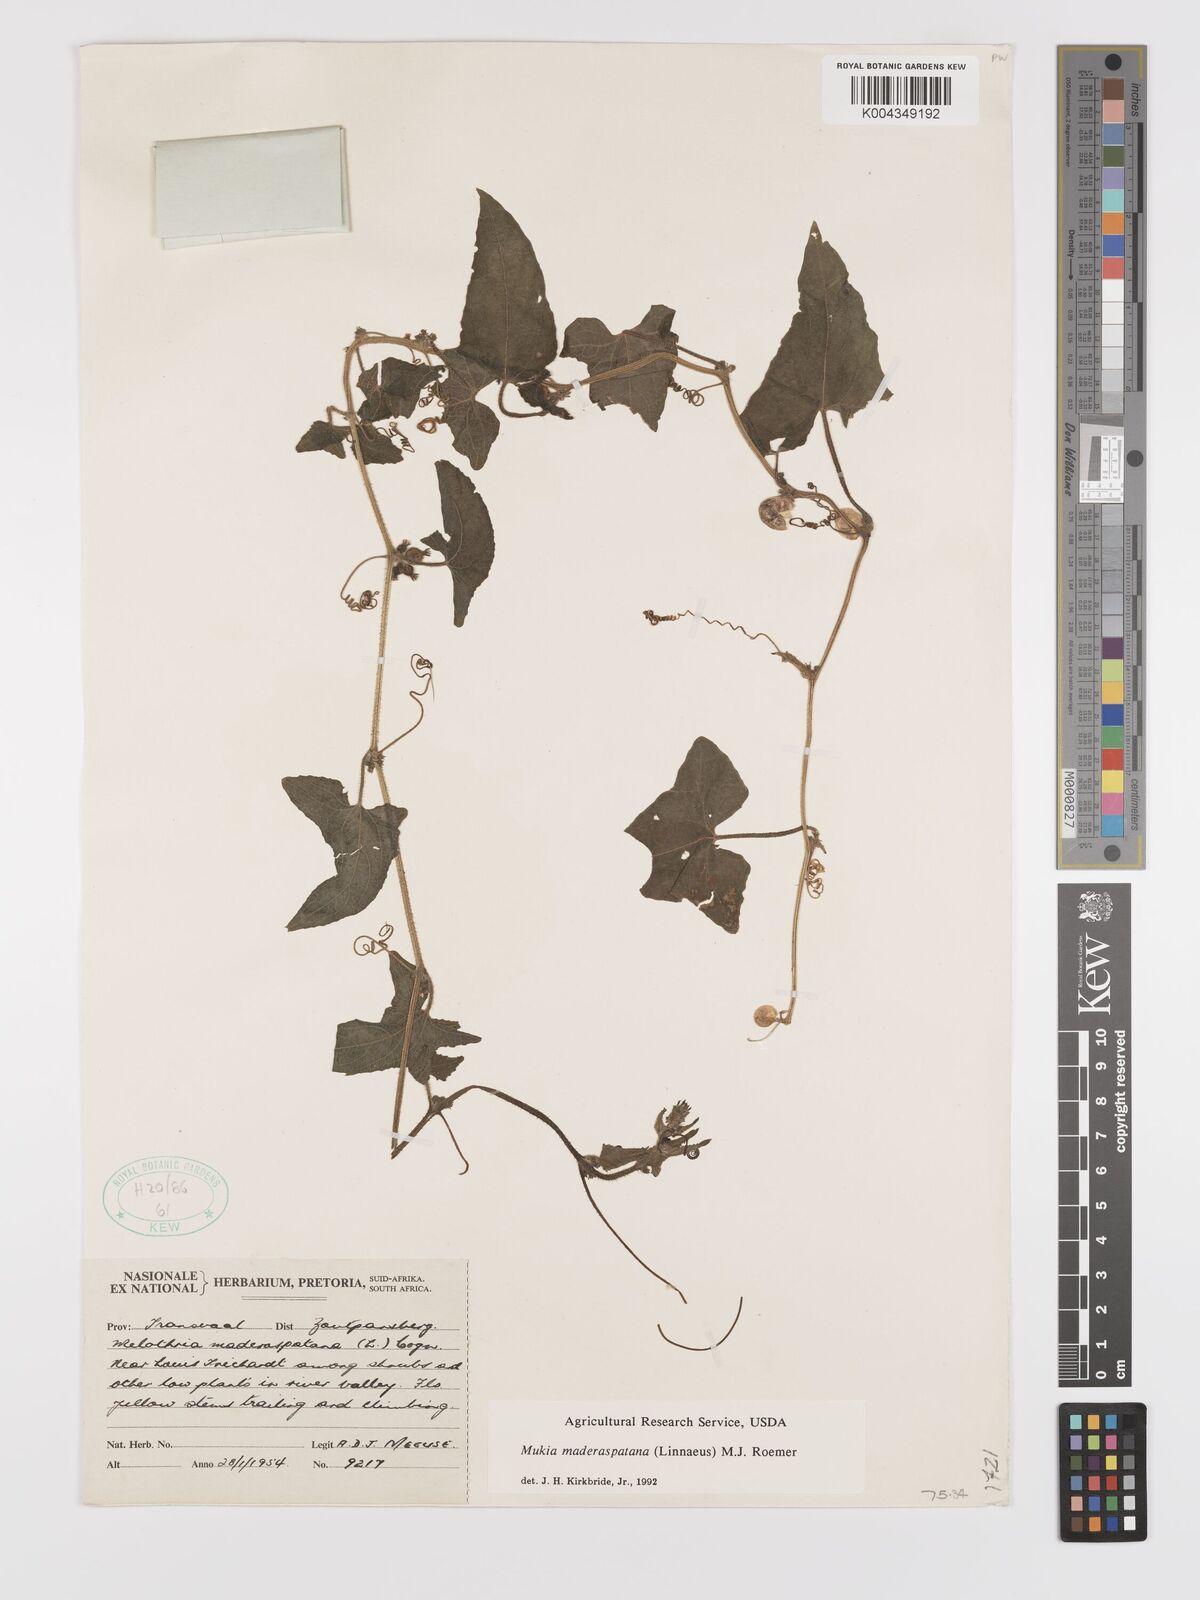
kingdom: Plantae
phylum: Tracheophyta
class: Magnoliopsida
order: Cucurbitales
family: Cucurbitaceae
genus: Cucumis
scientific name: Cucumis maderaspatanus
